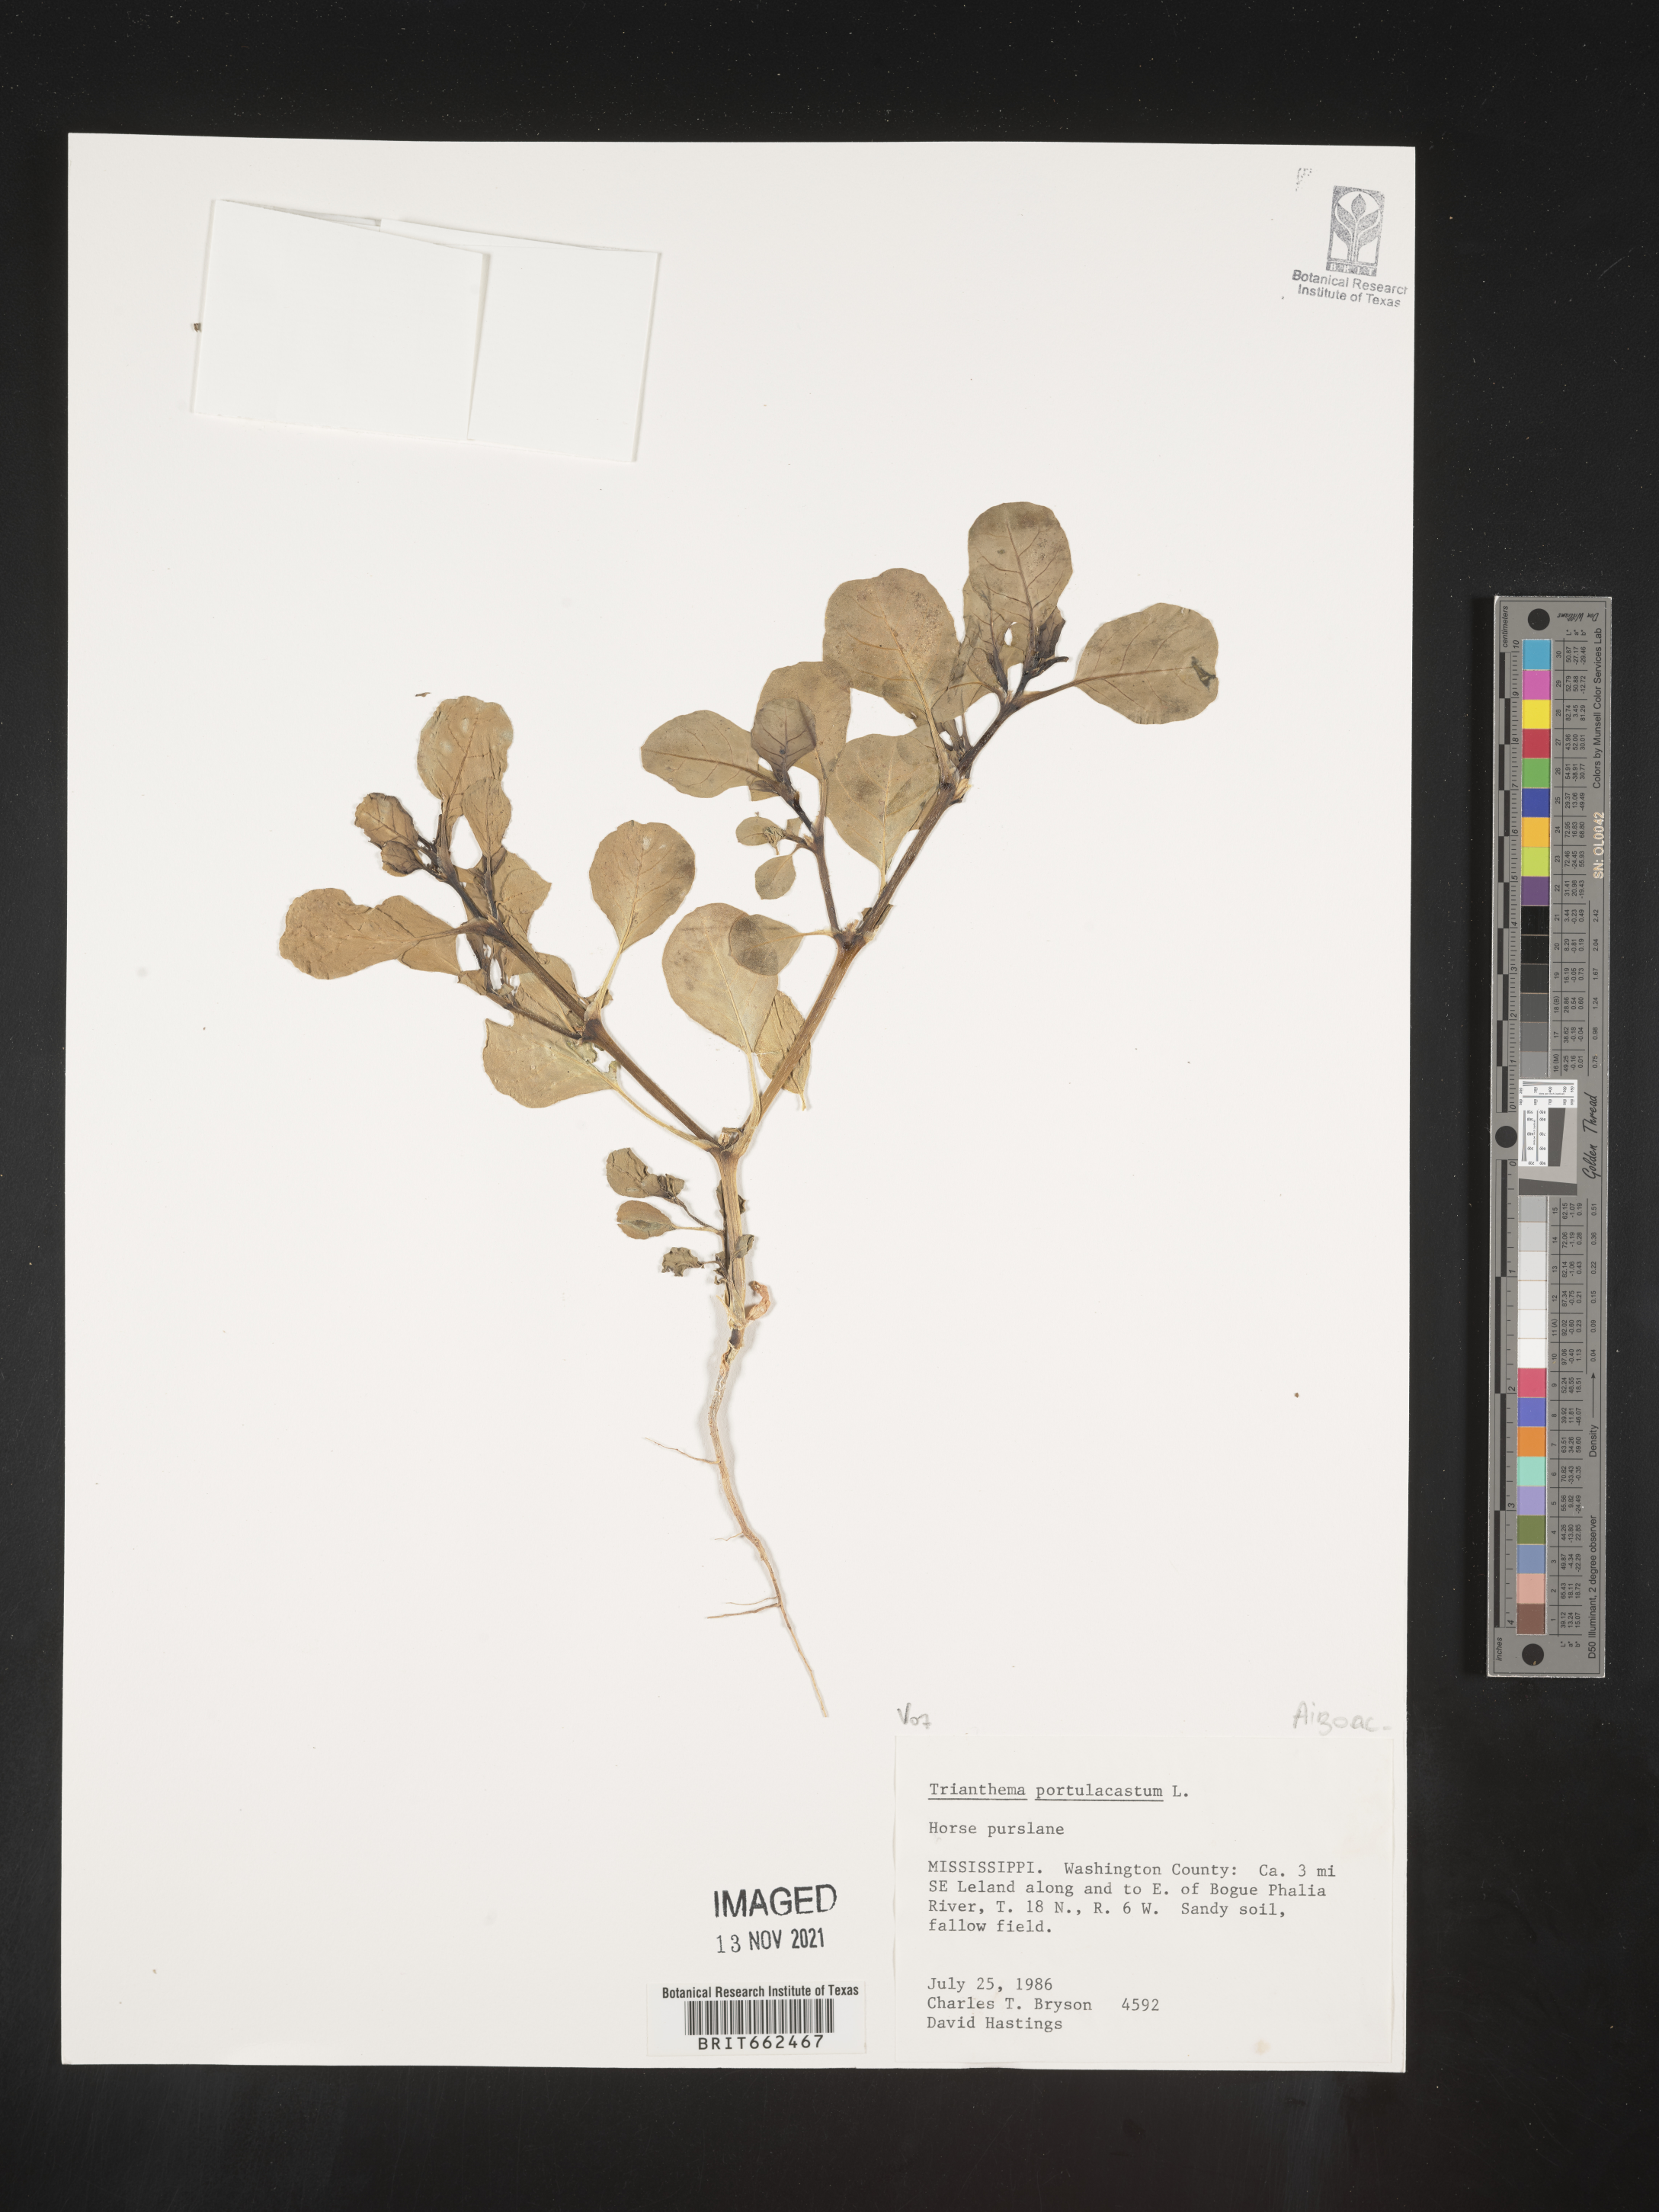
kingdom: Plantae
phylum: Tracheophyta
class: Magnoliopsida
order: Caryophyllales
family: Aizoaceae
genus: Trianthema
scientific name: Trianthema
